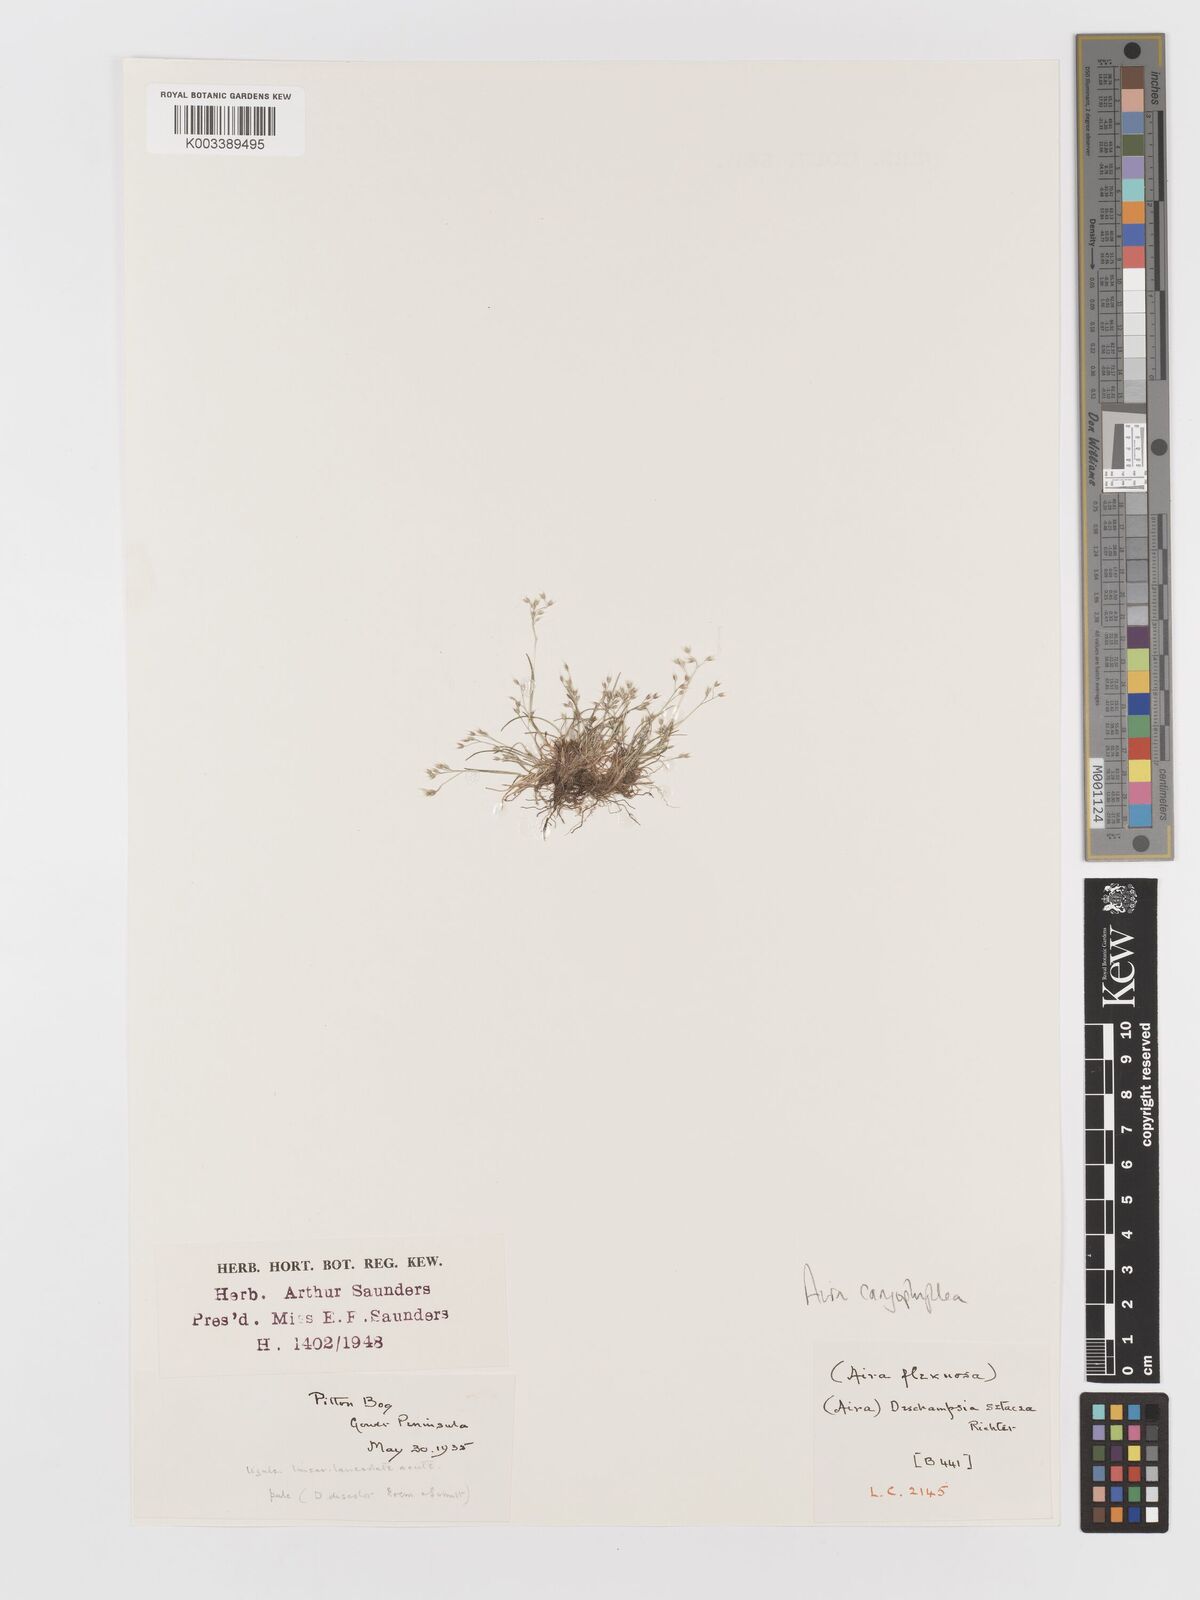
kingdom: Plantae
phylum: Tracheophyta
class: Liliopsida
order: Poales
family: Poaceae
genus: Aira
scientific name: Aira caryophyllea
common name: Silver hairgrass
